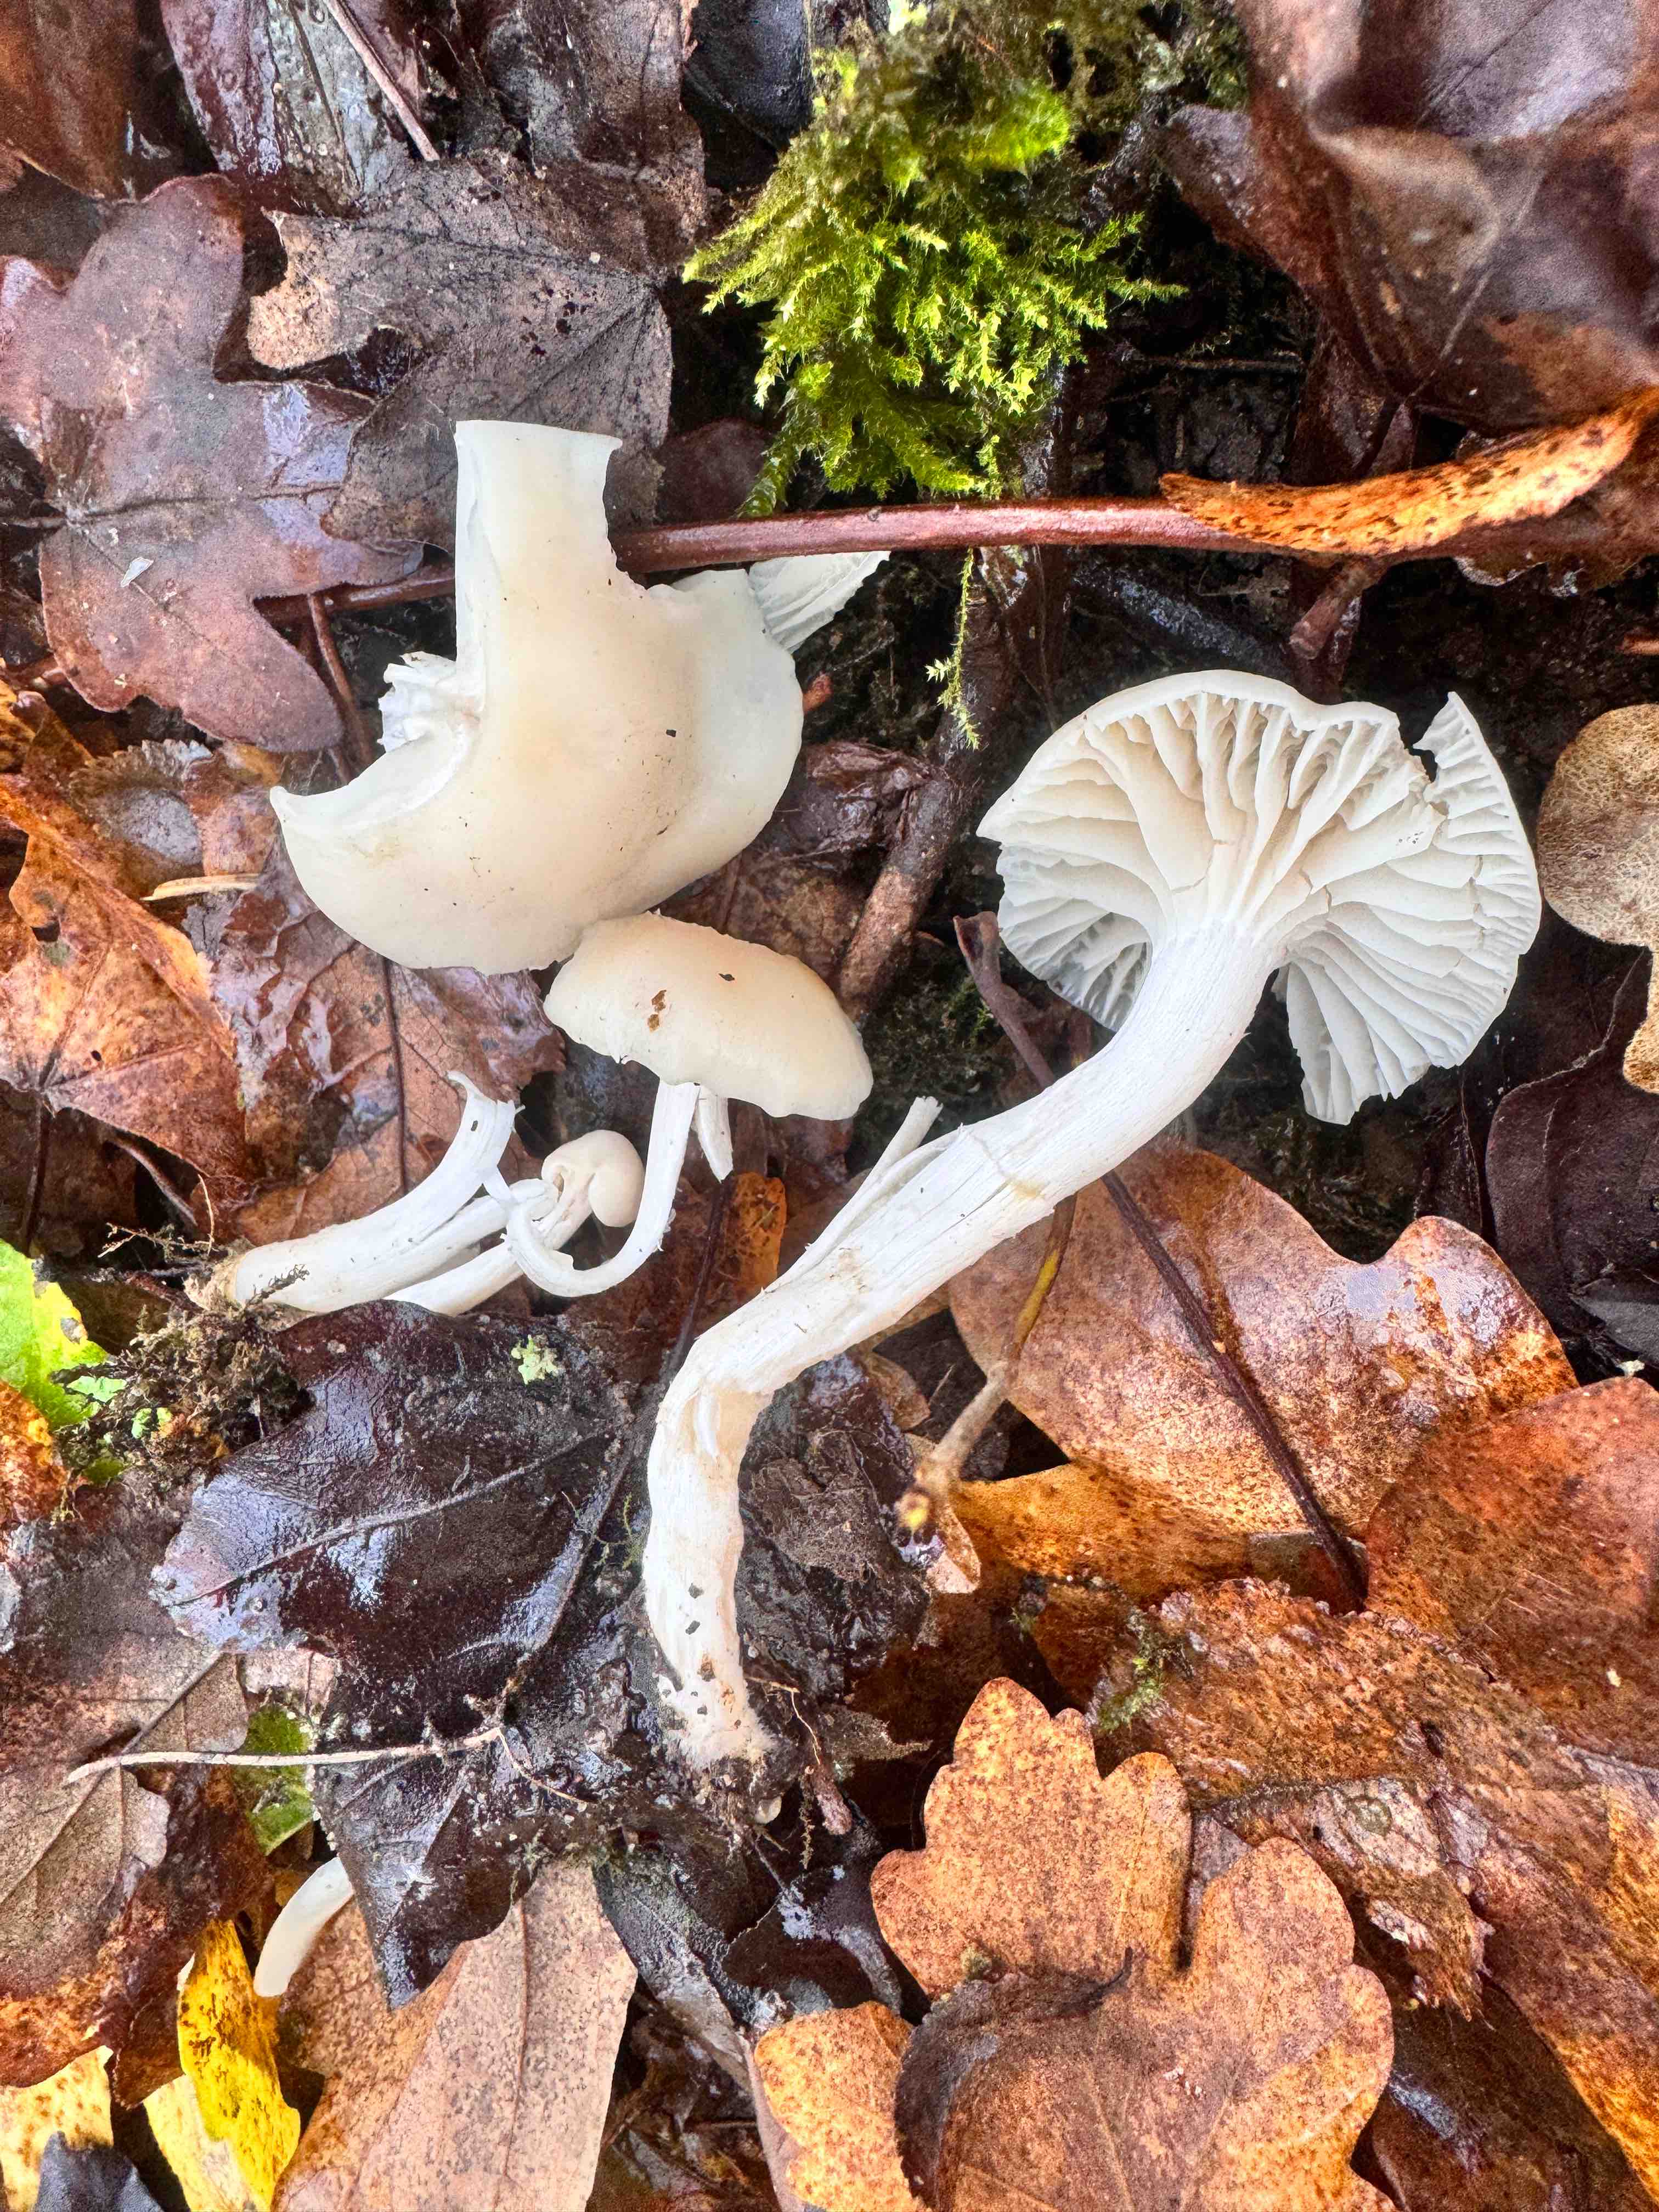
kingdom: Fungi
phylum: Basidiomycota
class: Agaricomycetes
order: Agaricales
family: Hygrophoraceae
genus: Cuphophyllus
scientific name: Cuphophyllus virgineus
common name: snehvid vokshat
